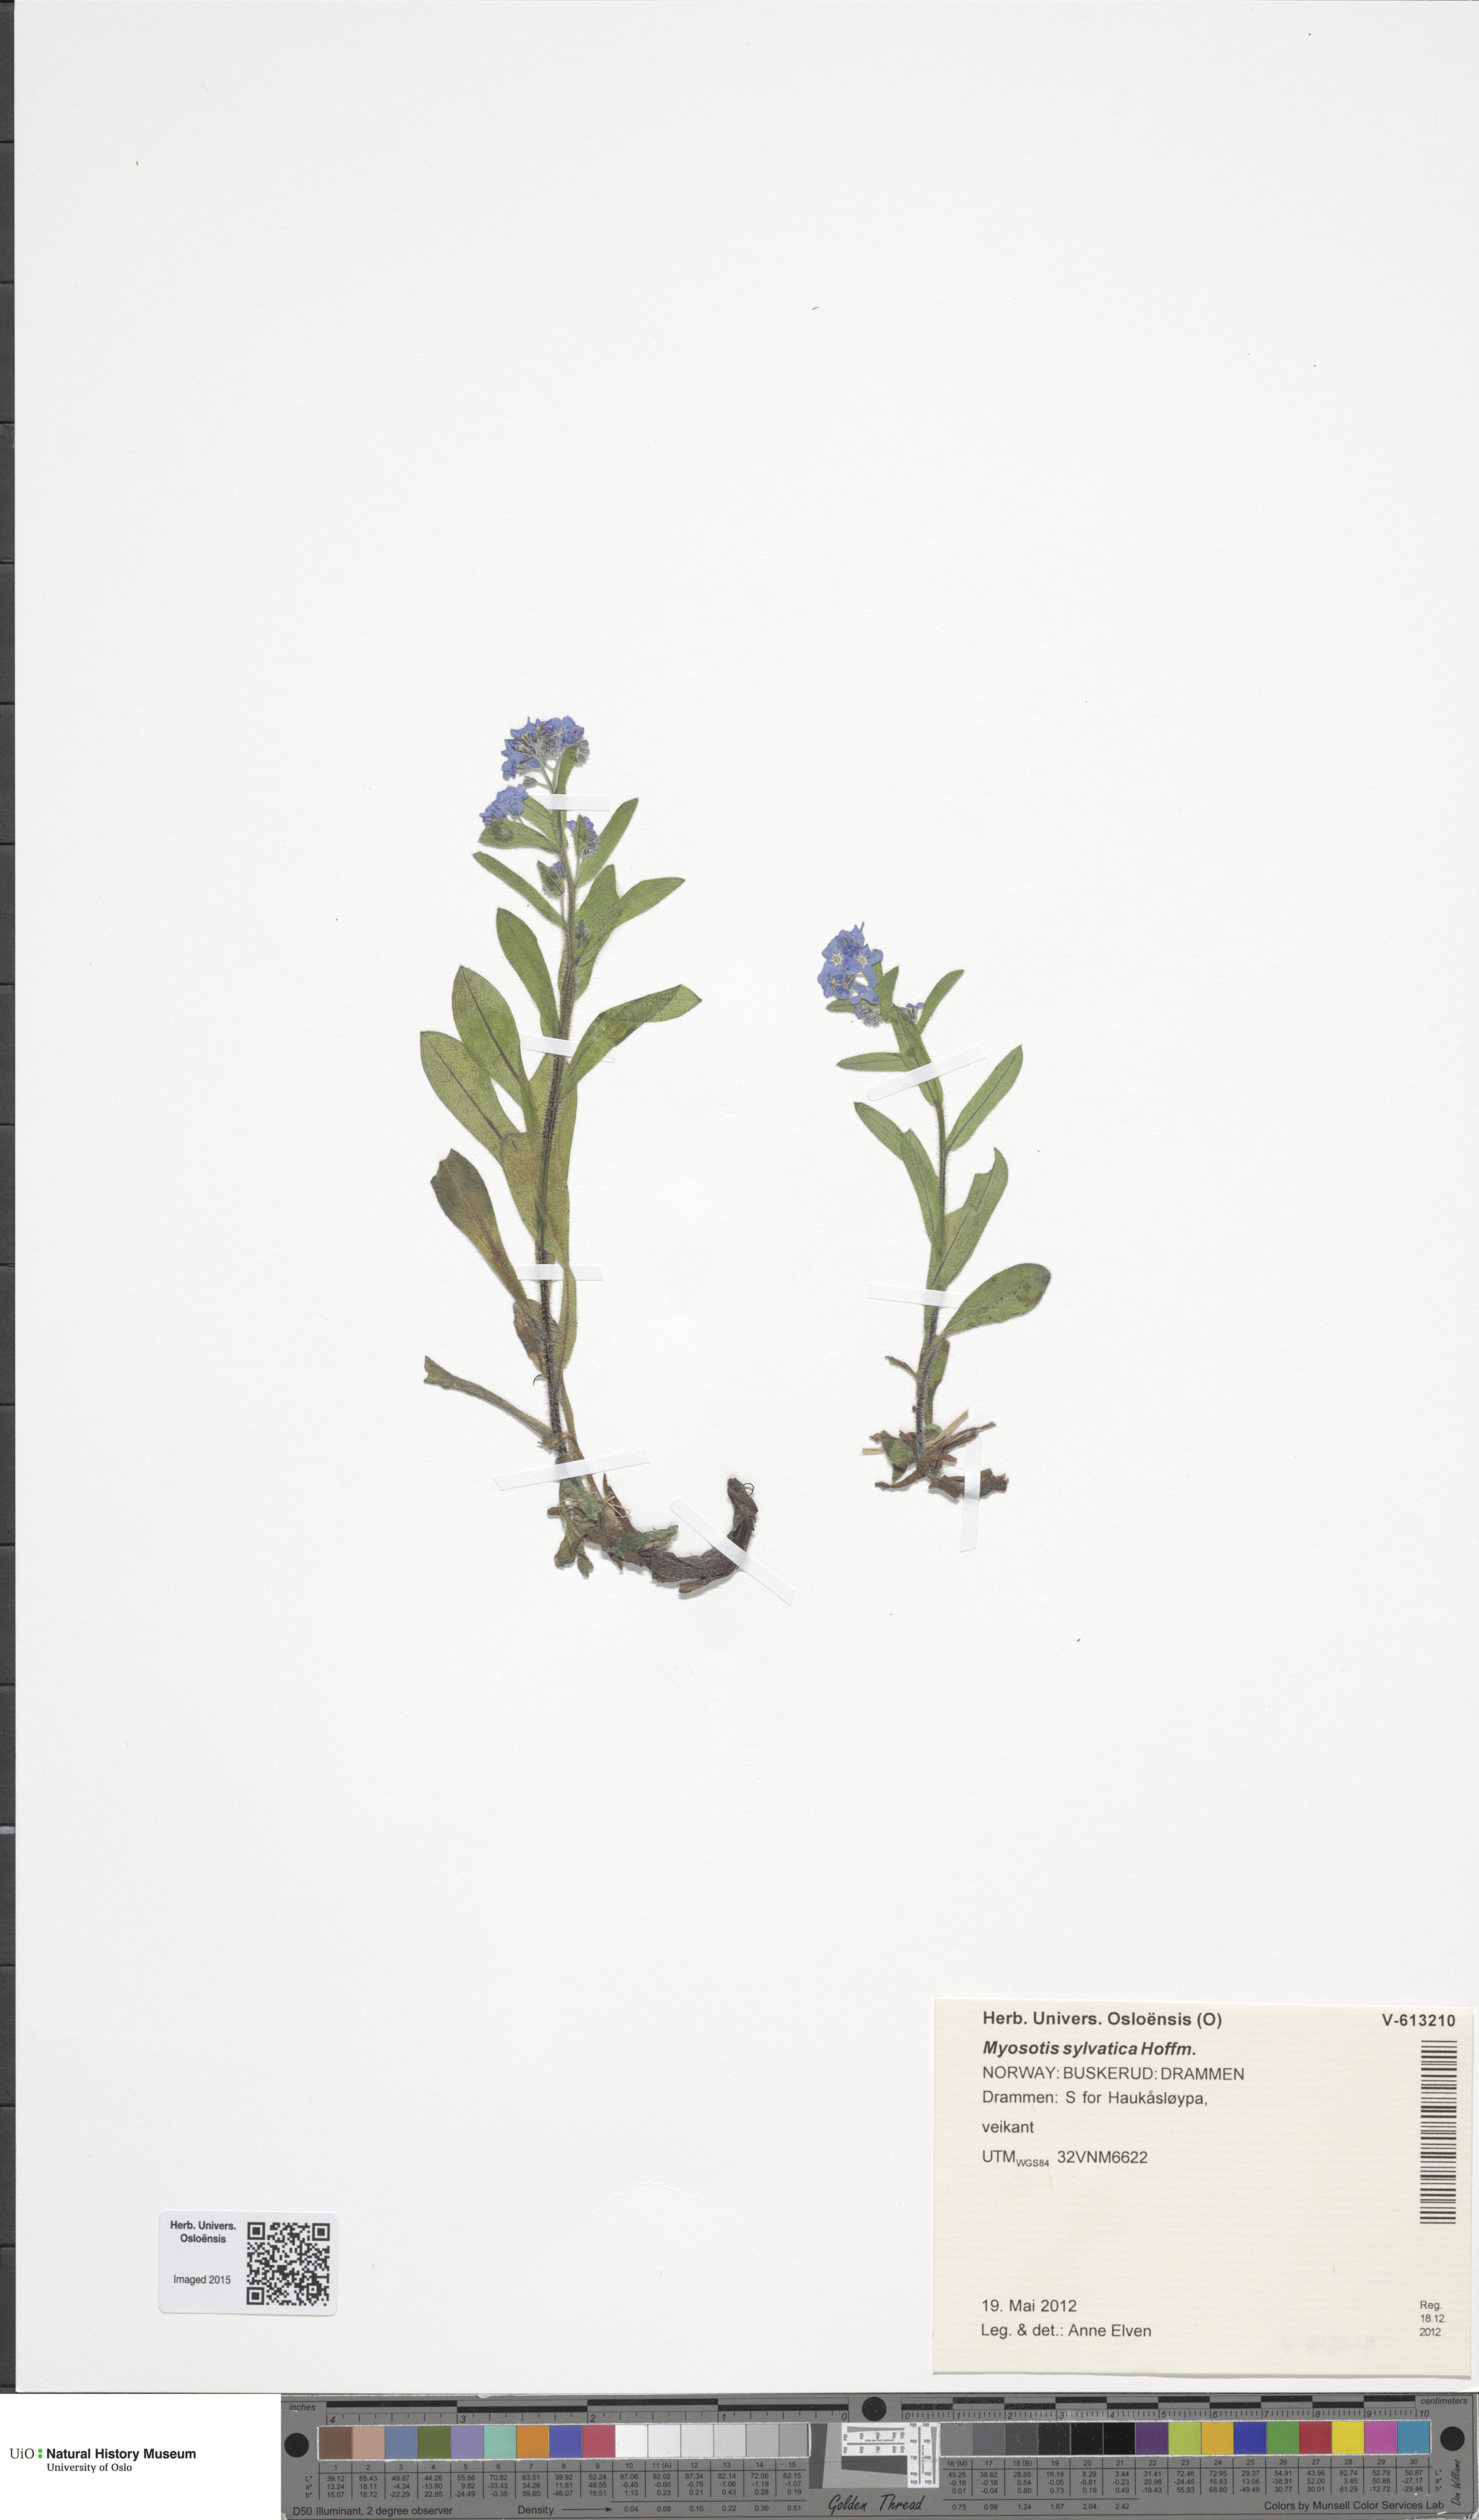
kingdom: Plantae
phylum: Tracheophyta
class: Magnoliopsida
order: Boraginales
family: Boraginaceae
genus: Myosotis
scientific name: Myosotis sylvatica
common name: Wood forget-me-not
